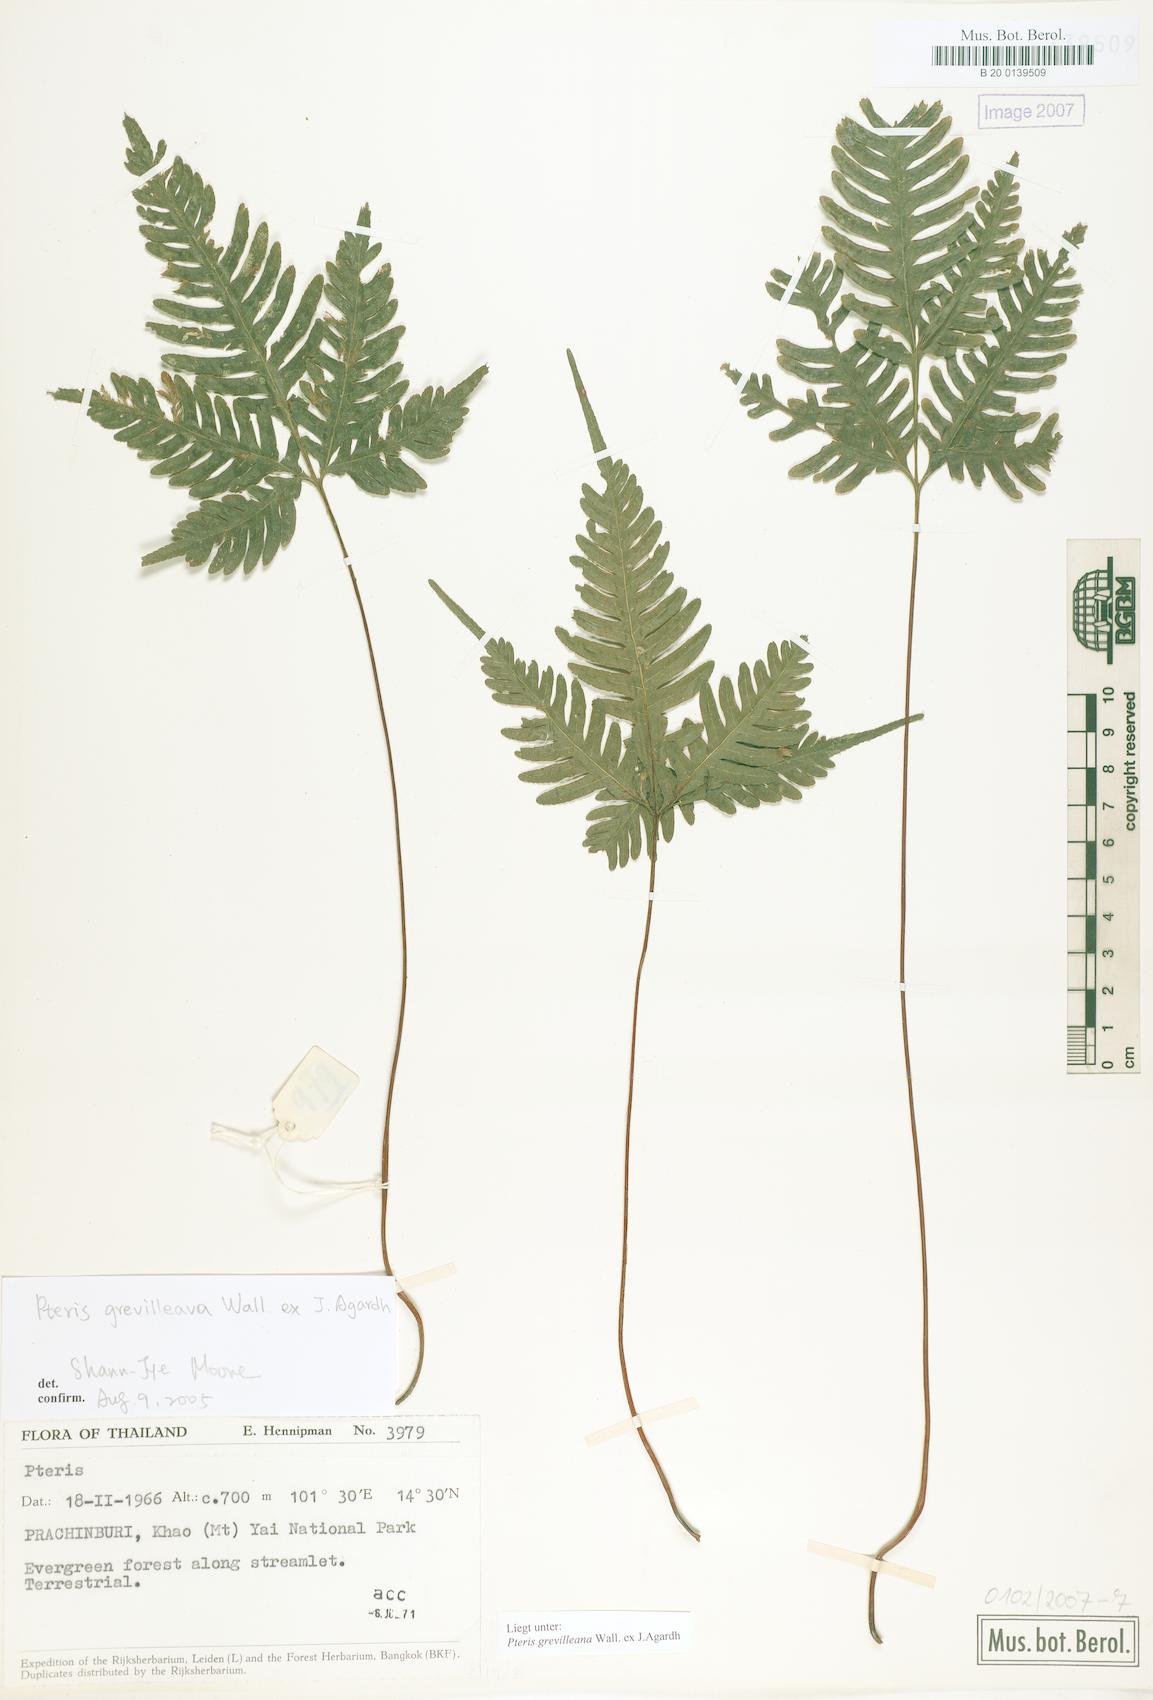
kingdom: Plantae
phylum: Tracheophyta
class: Polypodiopsida
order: Polypodiales
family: Pteridaceae
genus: Pteris
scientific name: Pteris grevilleana
